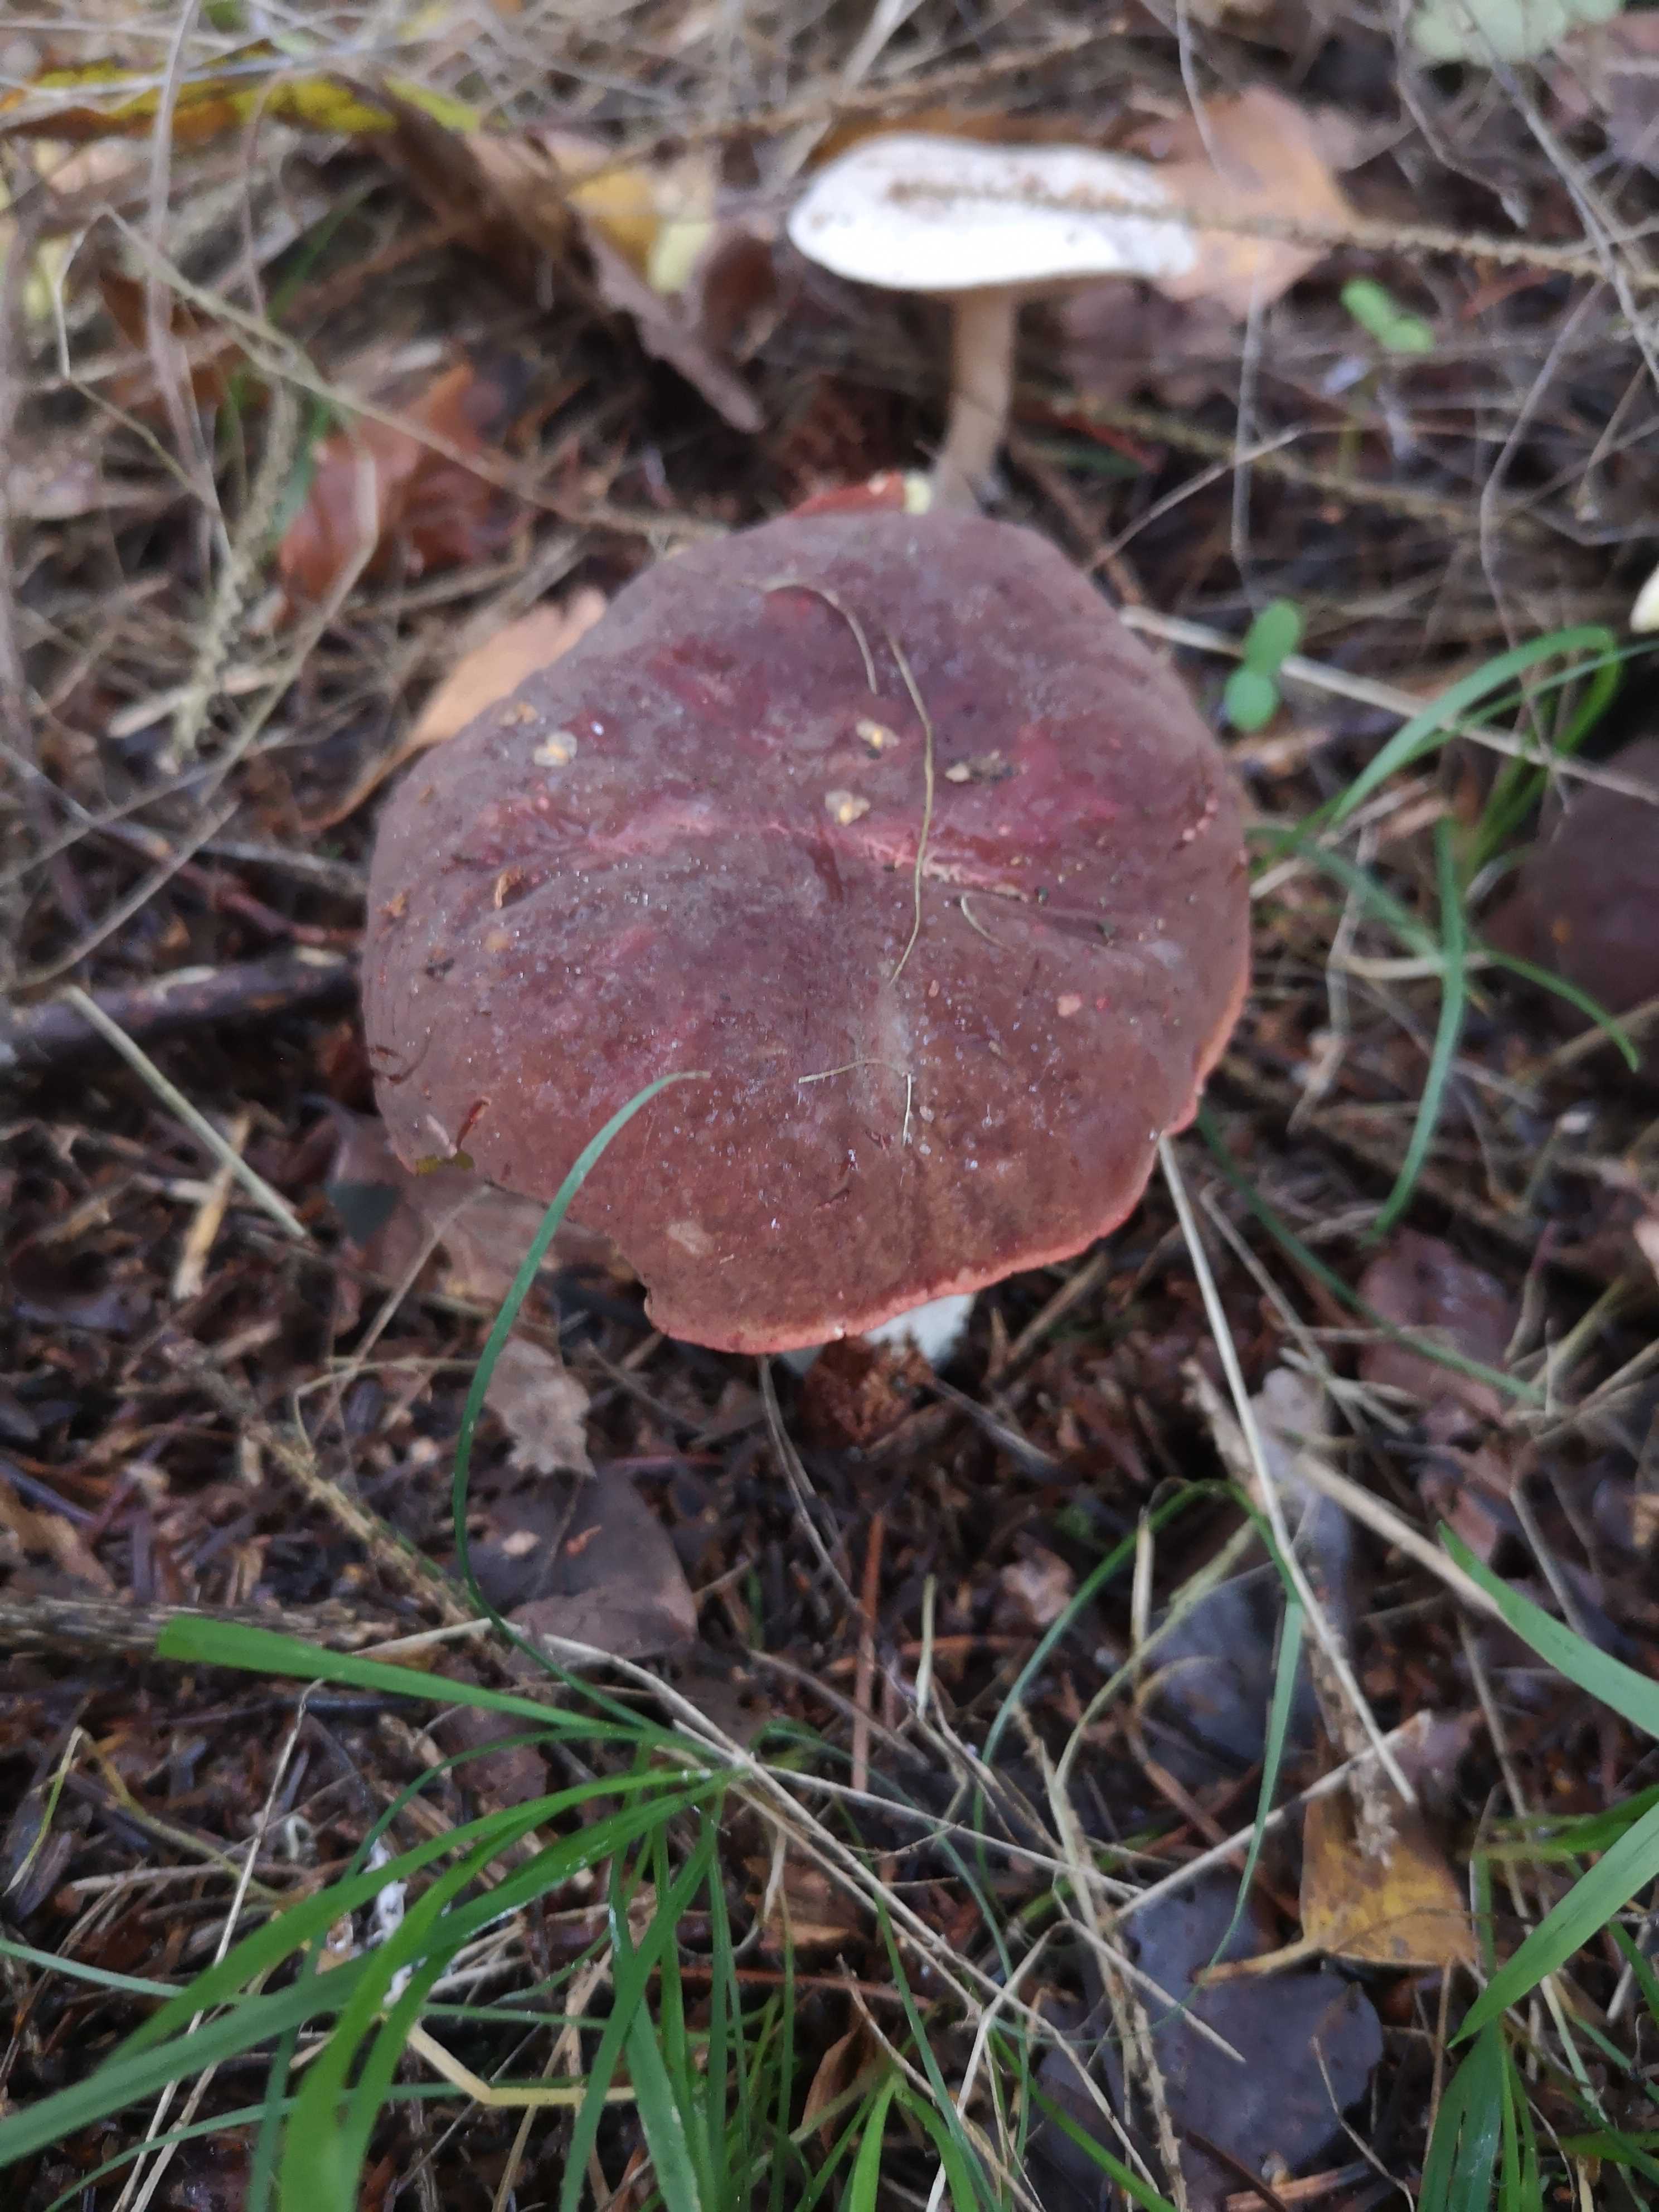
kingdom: Fungi
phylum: Basidiomycota
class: Agaricomycetes
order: Boletales
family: Boletaceae
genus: Xerocomellus
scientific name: Xerocomellus pruinatus
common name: dugget rørhat
